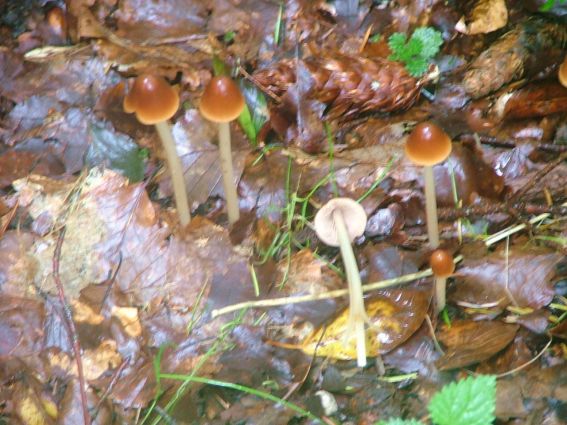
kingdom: Fungi
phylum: Basidiomycota
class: Agaricomycetes
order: Agaricales
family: Psathyrellaceae
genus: Parasola
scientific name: Parasola conopilea
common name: kegle-hjulhat
